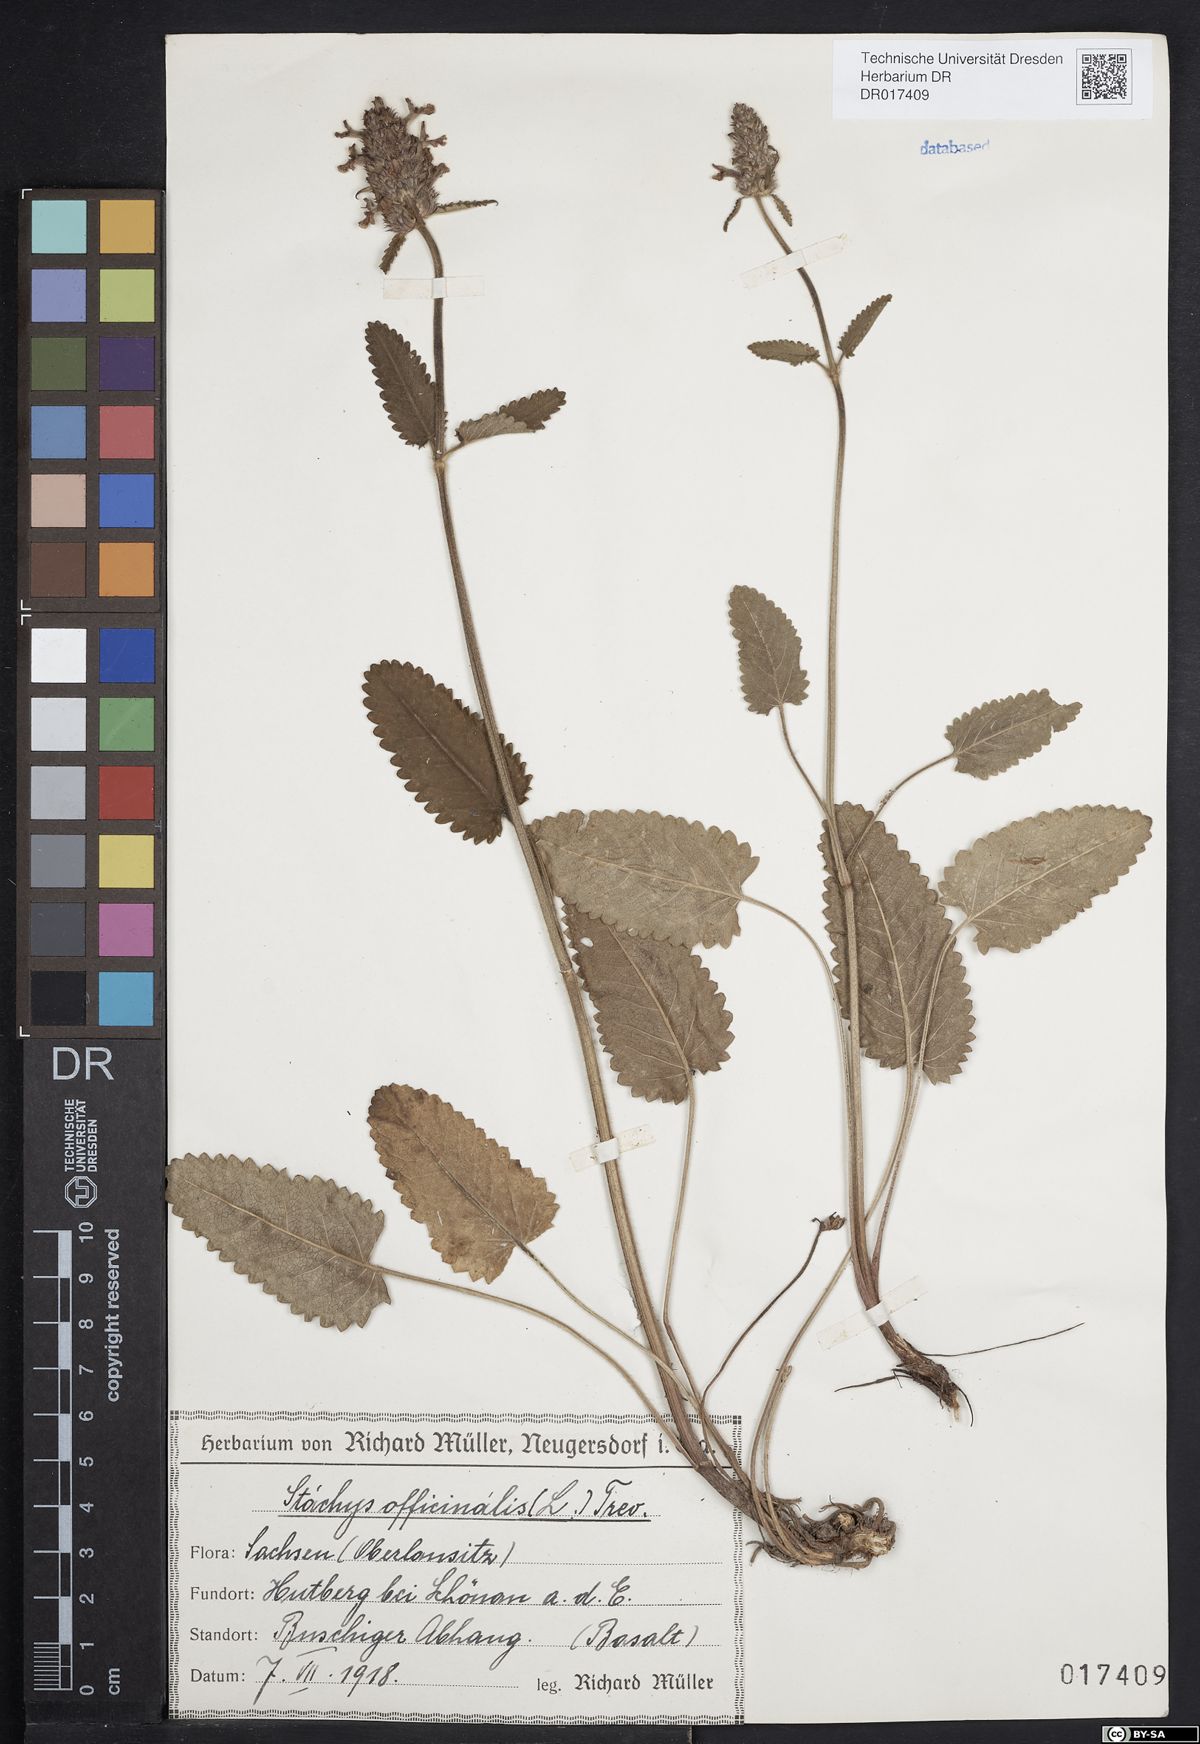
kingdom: Plantae
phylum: Tracheophyta
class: Magnoliopsida
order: Lamiales
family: Lamiaceae
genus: Betonica
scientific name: Betonica officinalis
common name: Bishop's-wort
